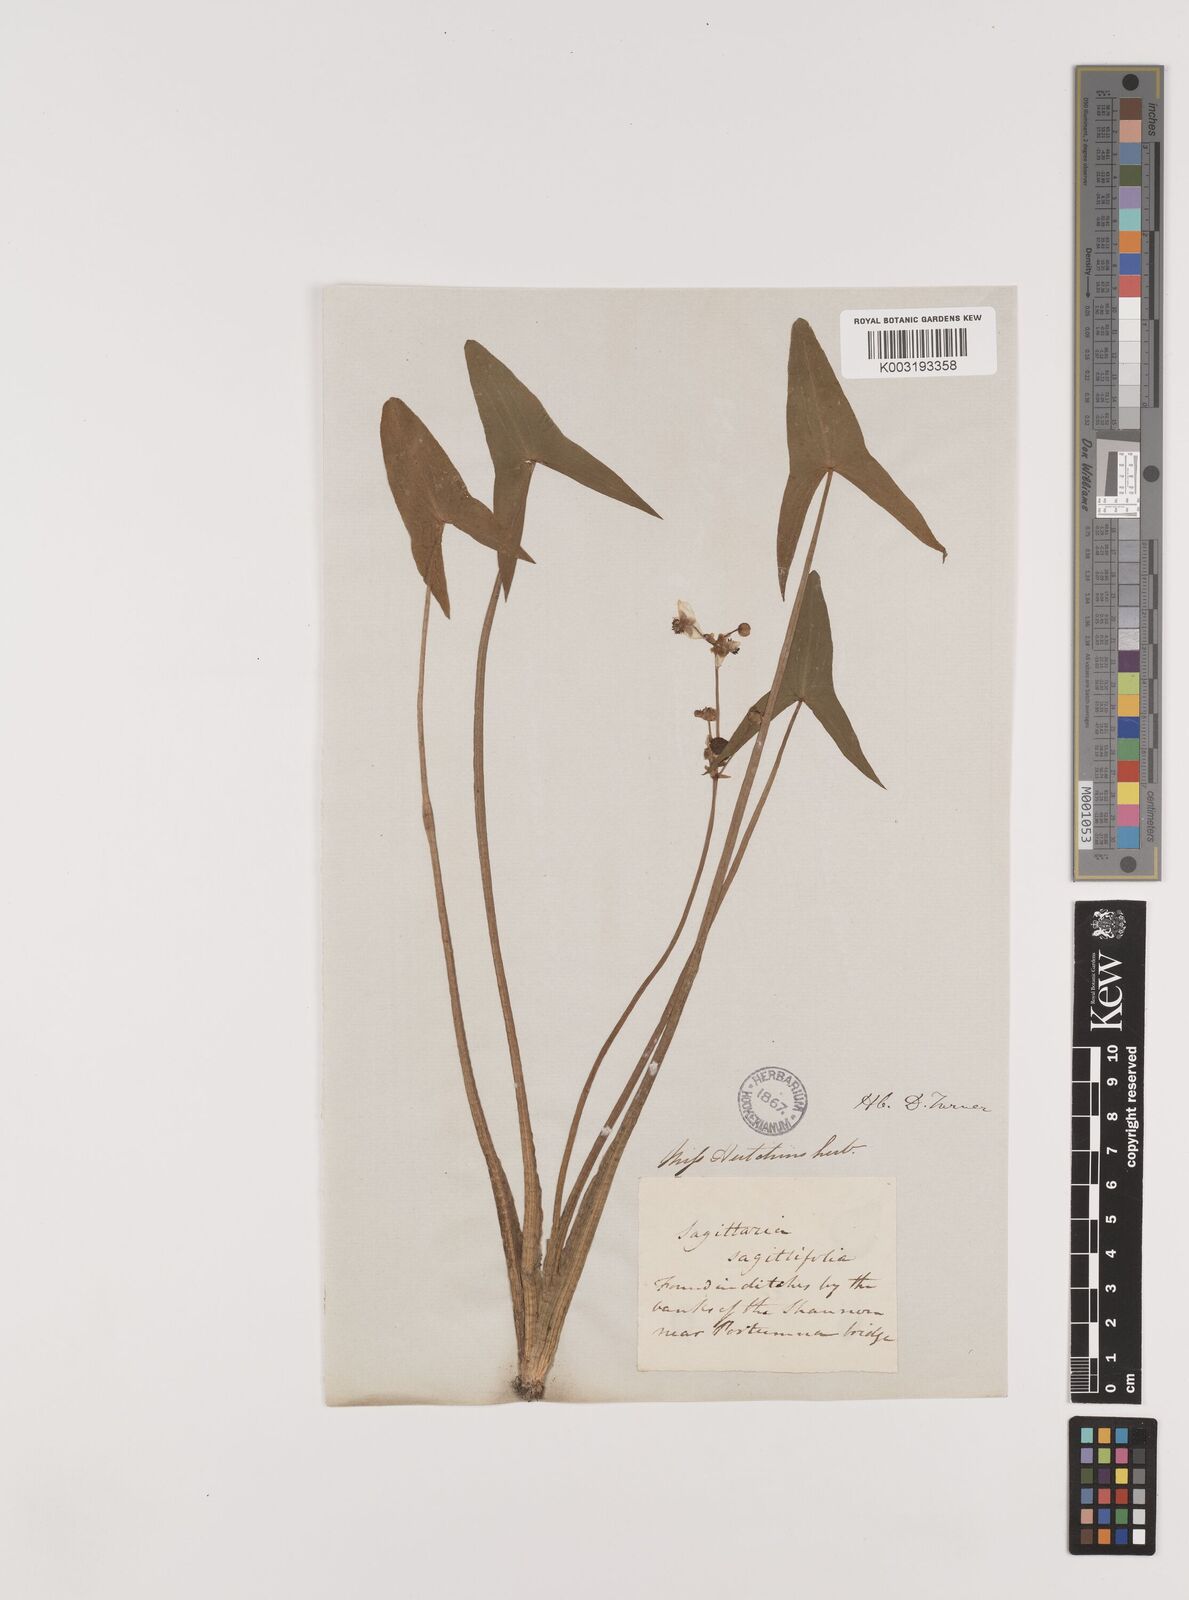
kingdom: Plantae
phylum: Tracheophyta
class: Liliopsida
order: Alismatales
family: Alismataceae
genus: Sagittaria
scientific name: Sagittaria sagittifolia
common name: Arrowhead
